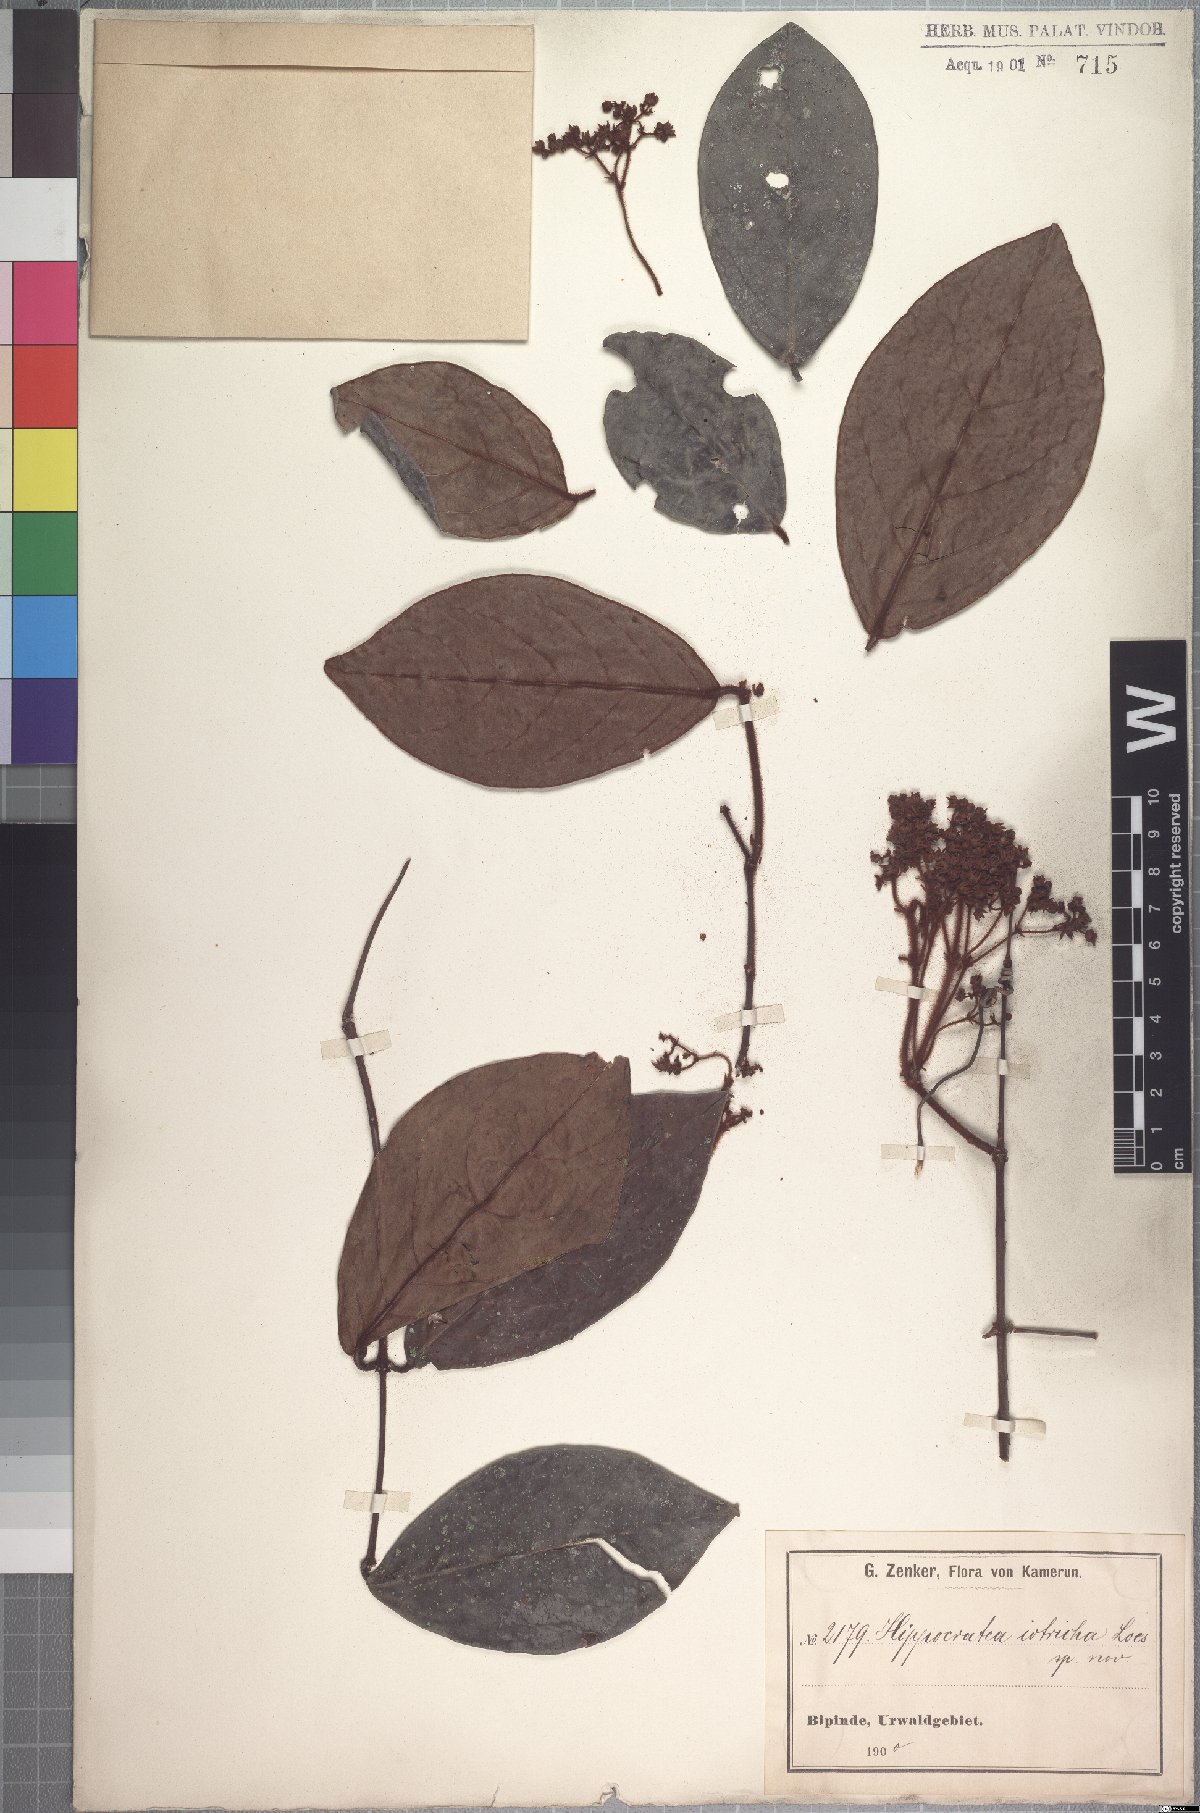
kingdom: Plantae
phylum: Tracheophyta
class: Magnoliopsida
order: Celastrales
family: Celastraceae
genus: Loeseneriella
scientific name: Loeseneriella iotricha
